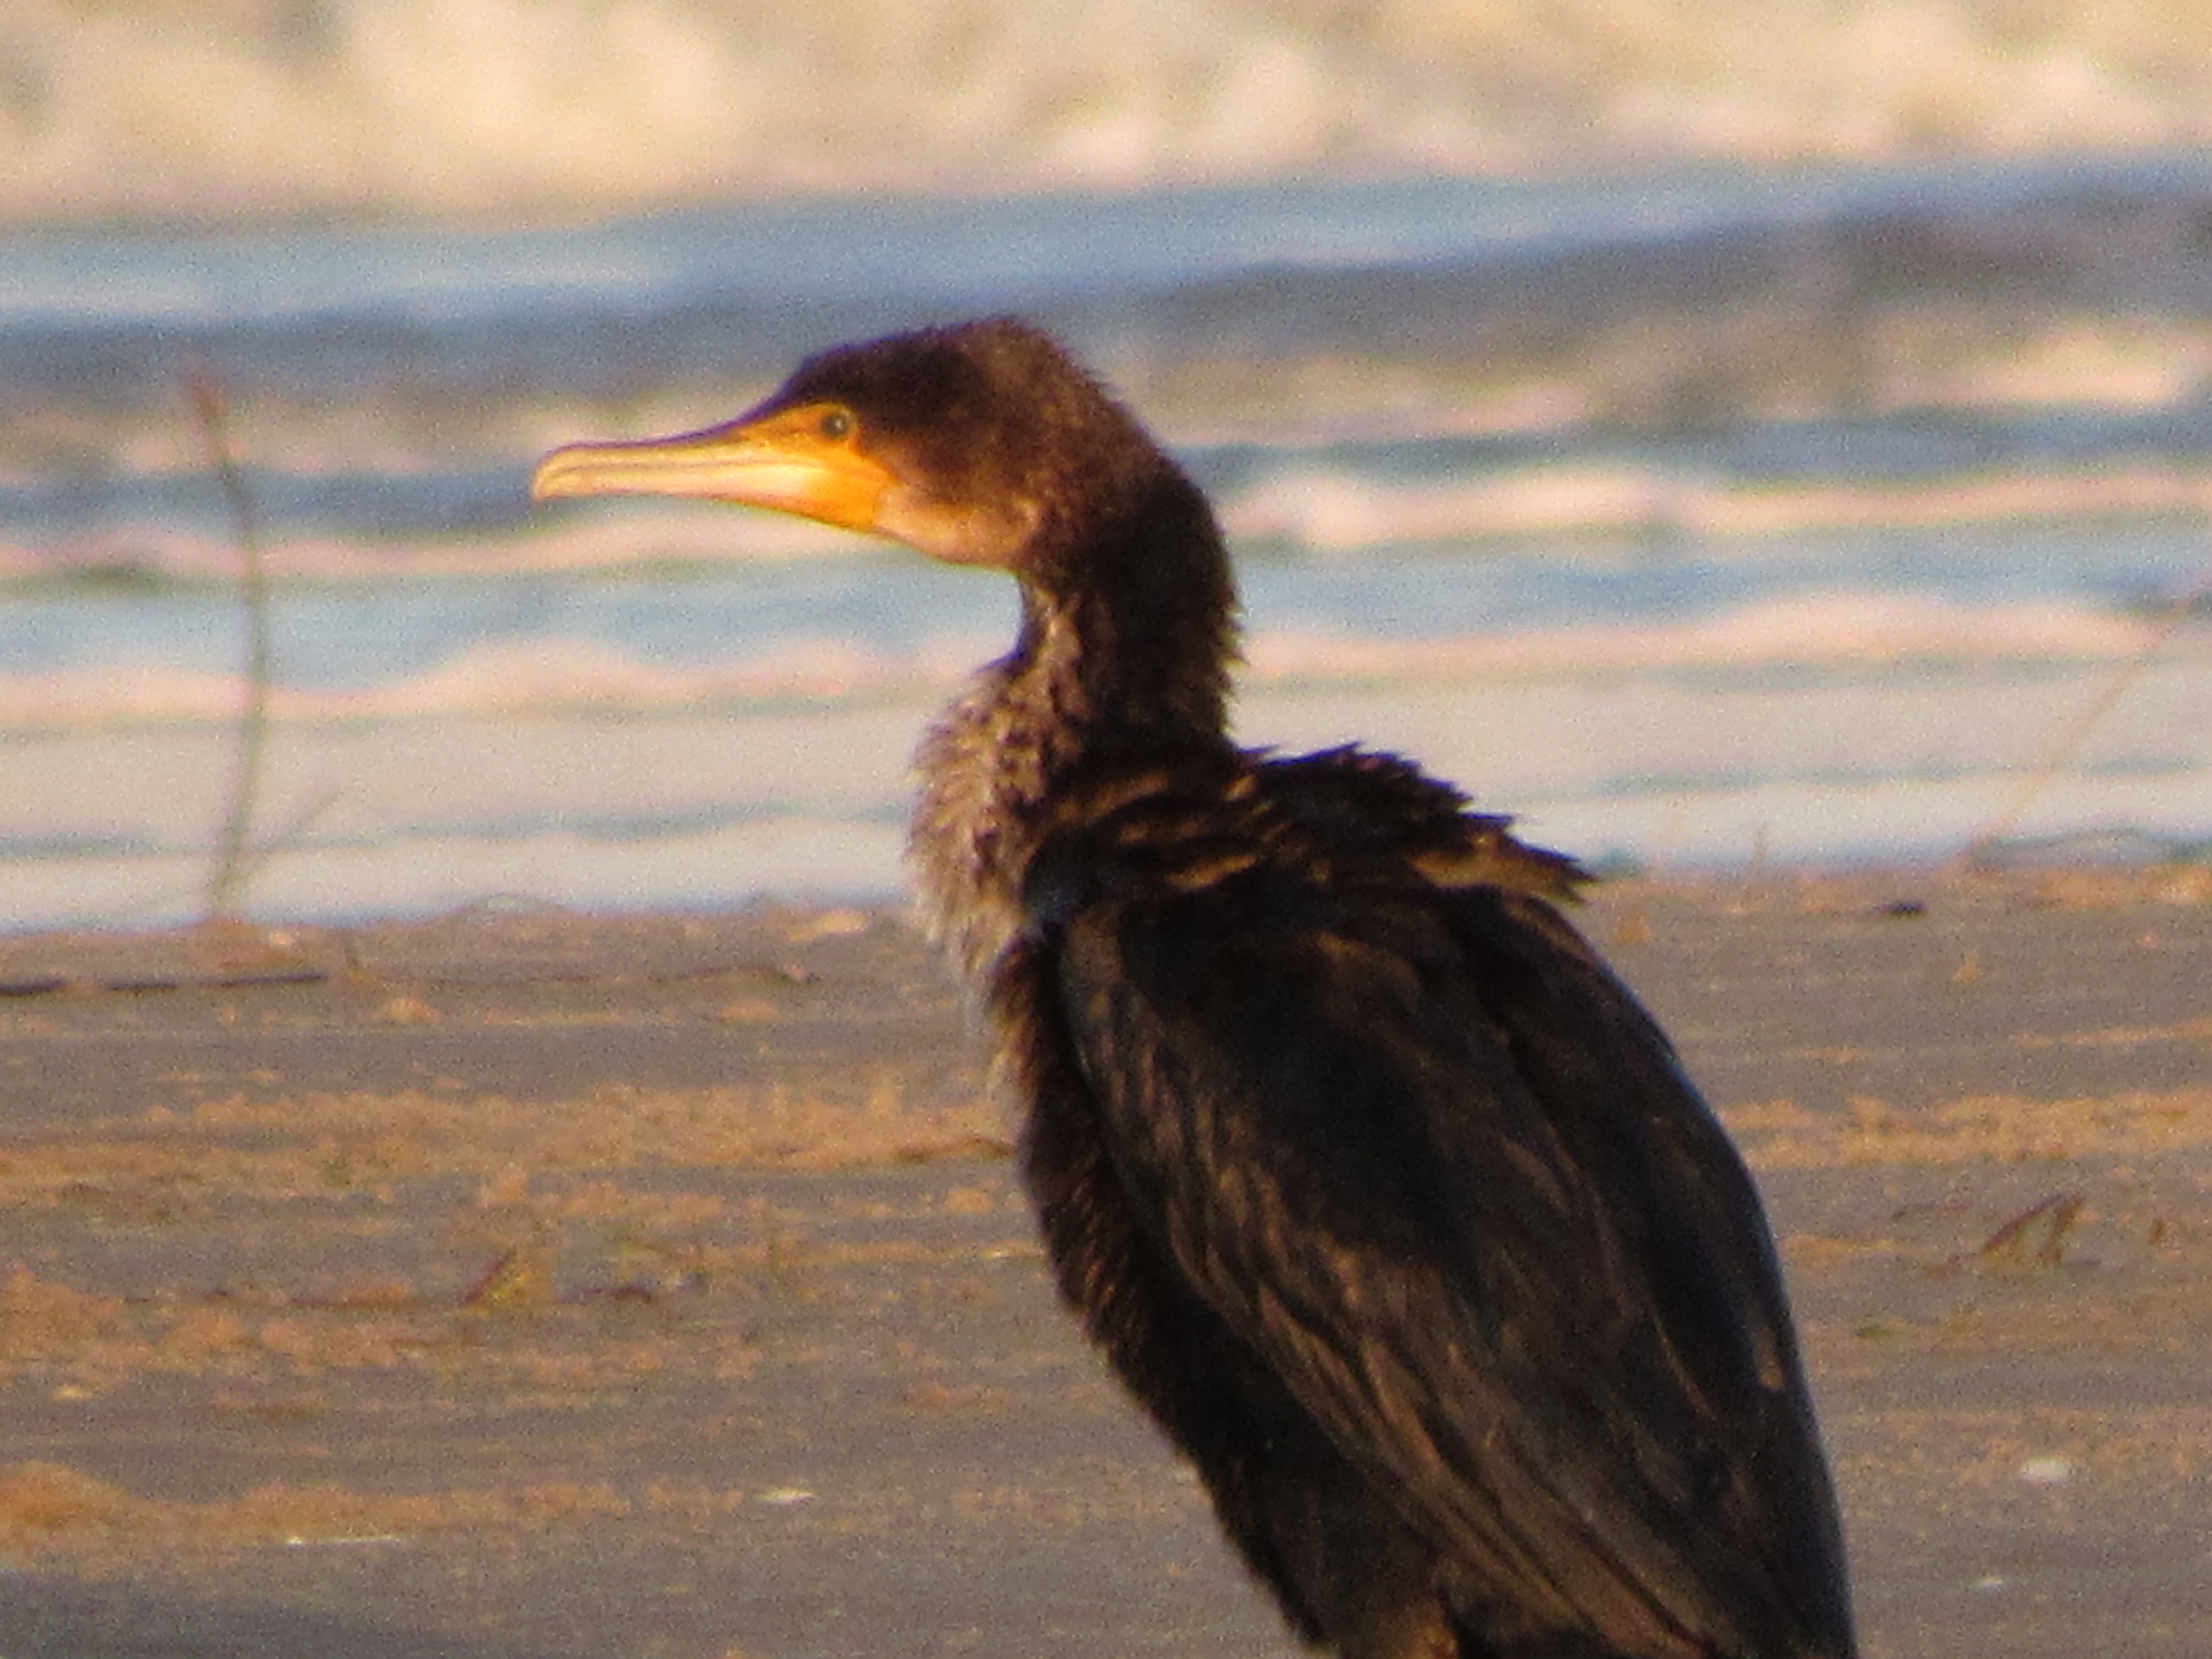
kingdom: Animalia
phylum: Chordata
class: Aves
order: Suliformes
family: Phalacrocoracidae
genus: Phalacrocorax
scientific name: Phalacrocorax carbo
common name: Skarv
